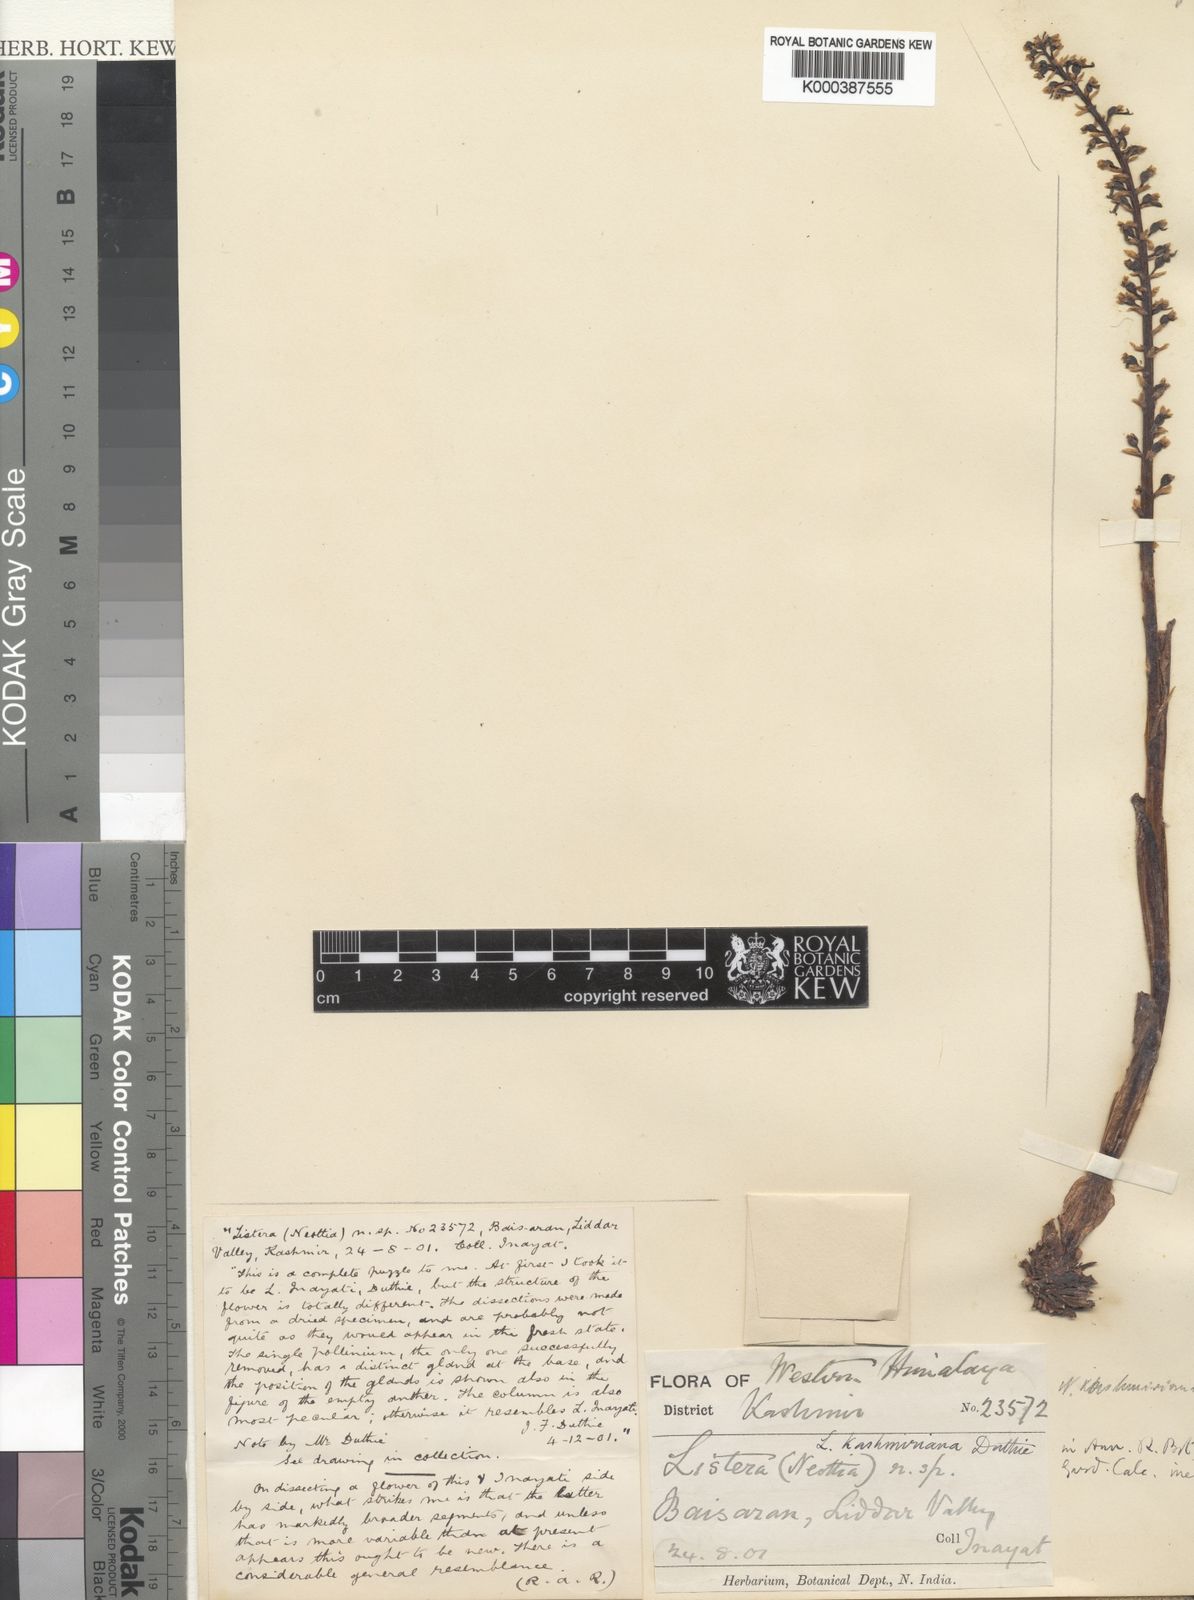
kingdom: Plantae
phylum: Tracheophyta
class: Liliopsida
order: Asparagales
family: Orchidaceae
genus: Neottia
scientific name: Neottia inayatii
